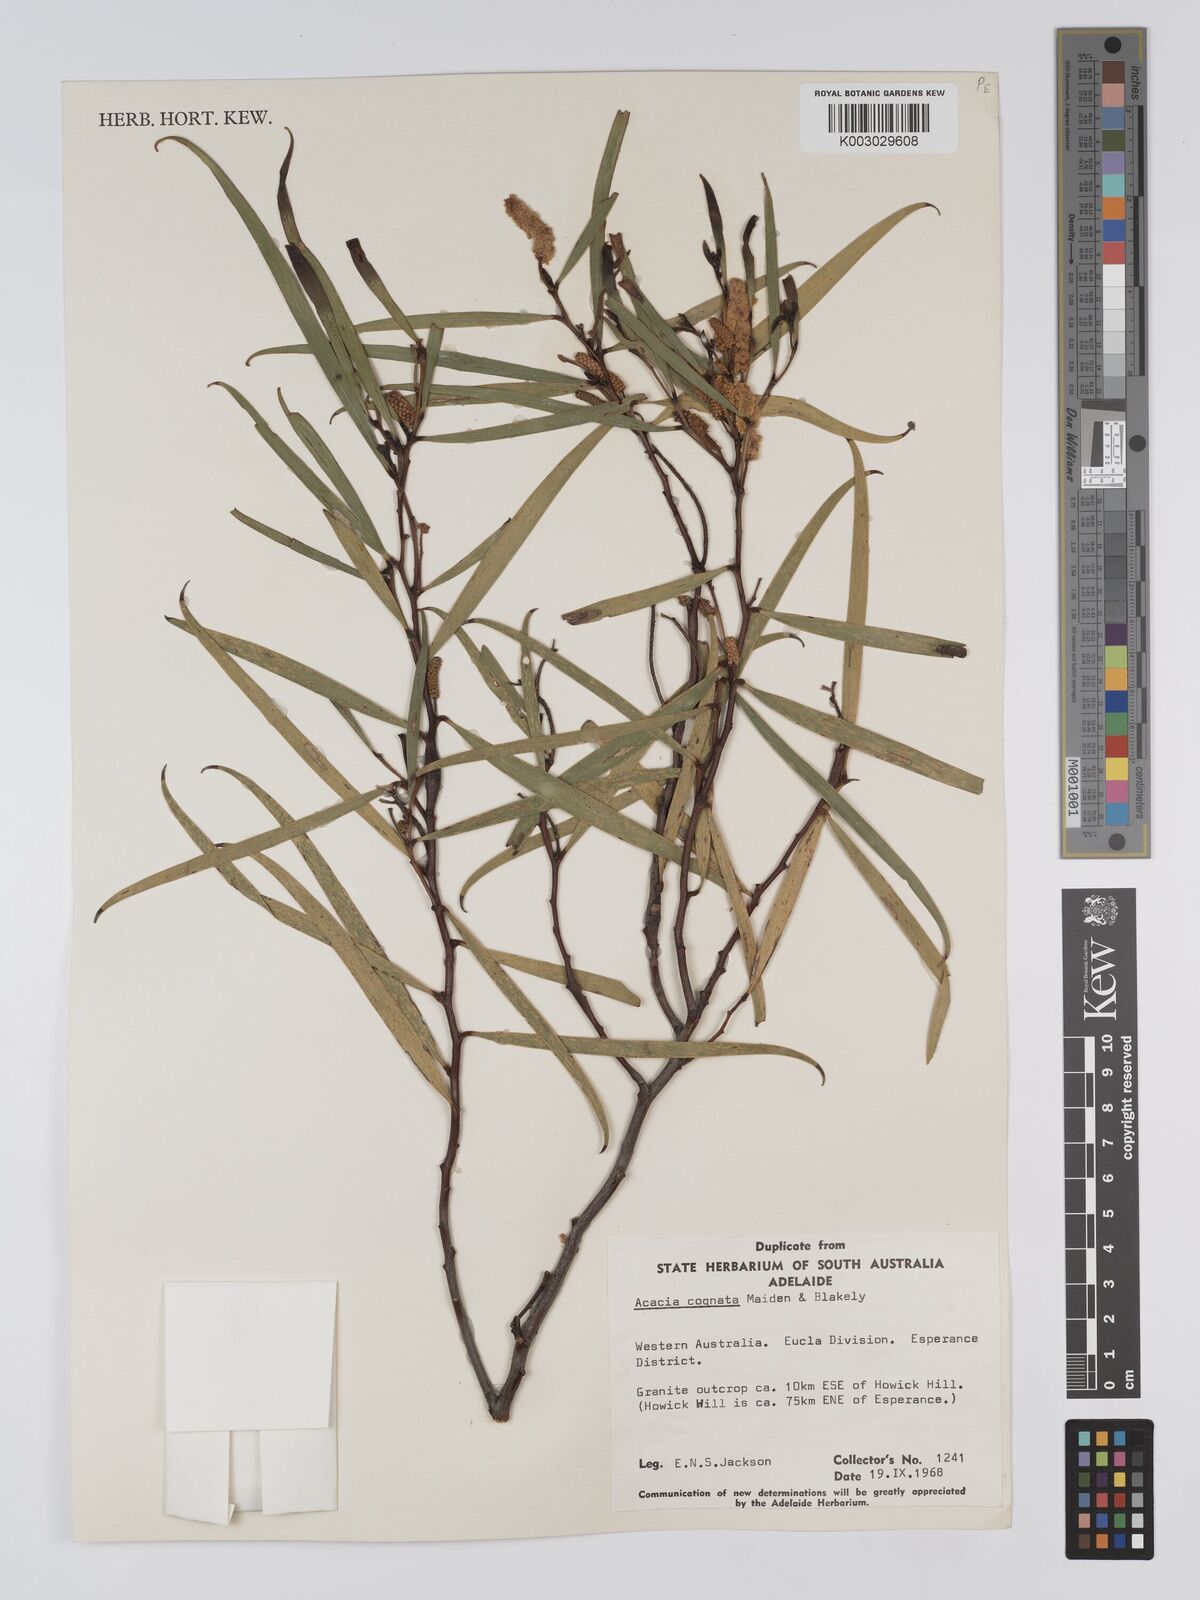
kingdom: Plantae
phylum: Tracheophyta
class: Magnoliopsida
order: Fabales
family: Fabaceae
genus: Acacia
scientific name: Acacia conniana
